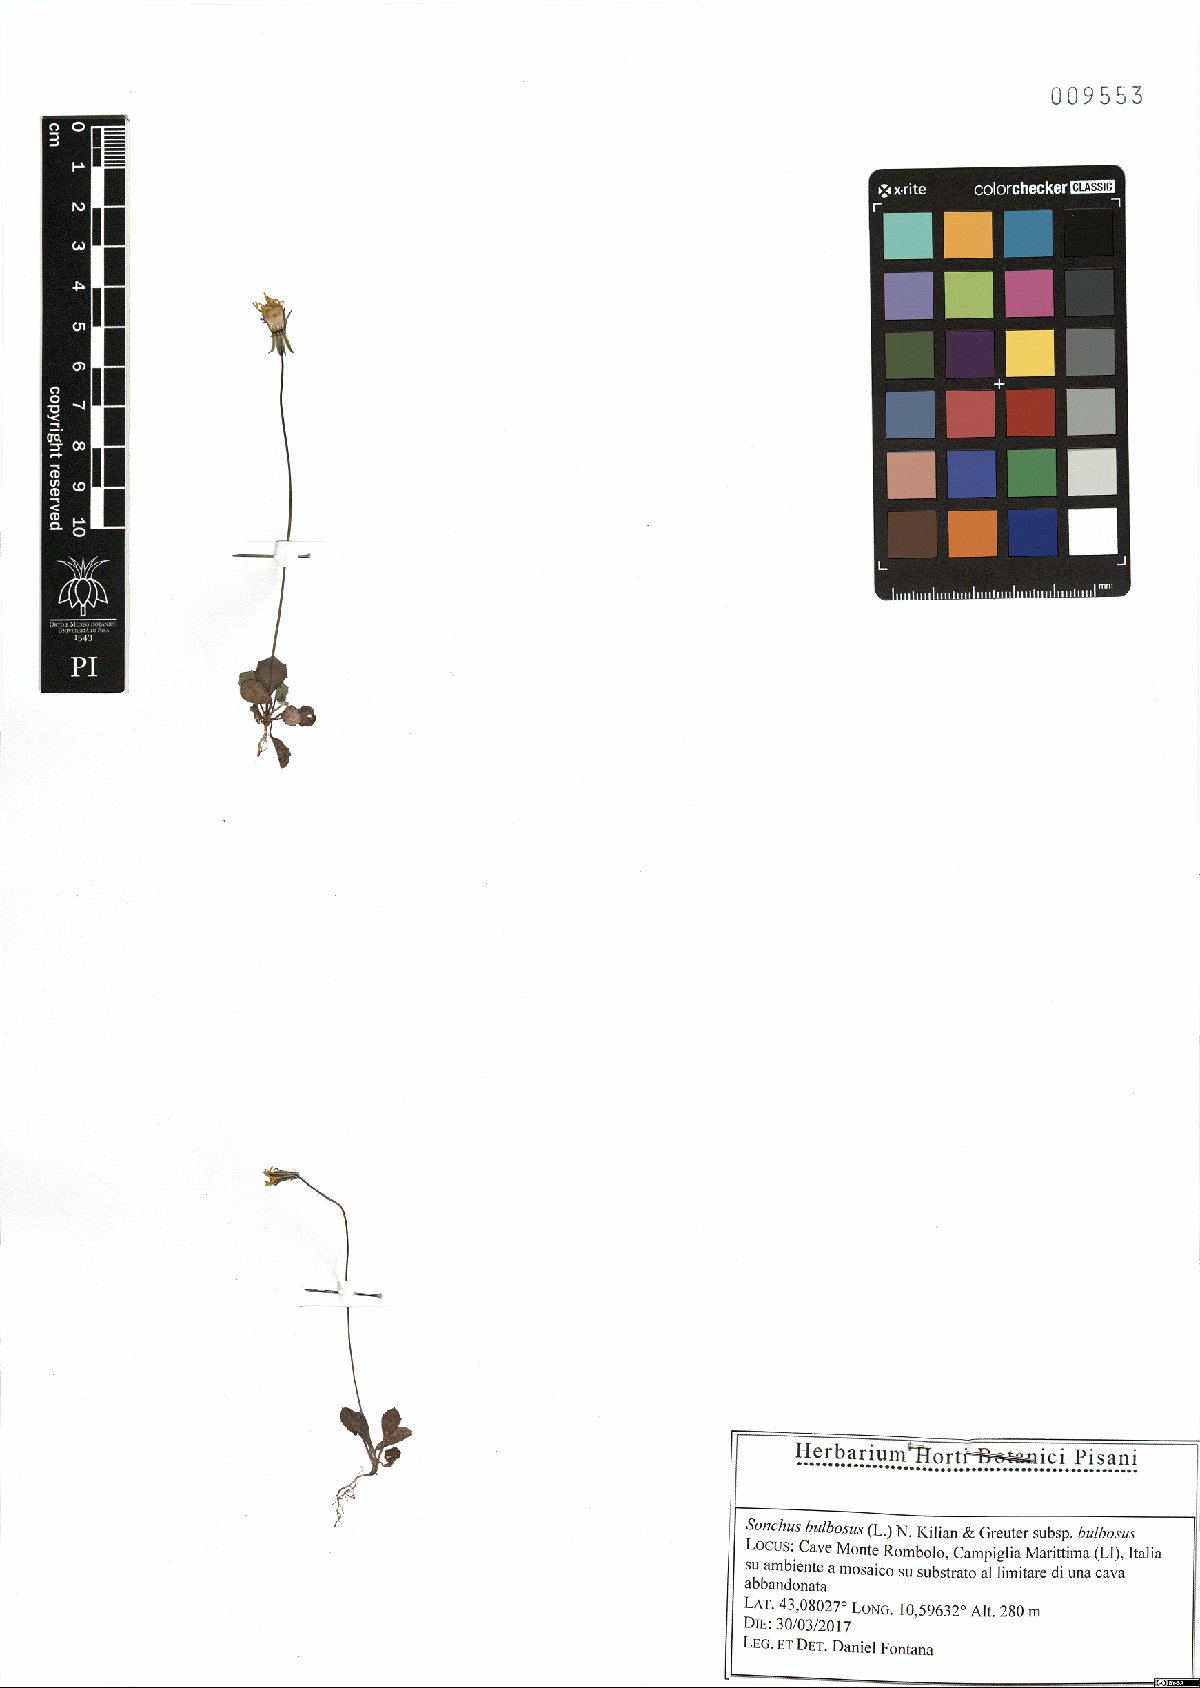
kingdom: Plantae
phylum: Tracheophyta
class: Magnoliopsida
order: Asterales
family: Asteraceae
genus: Aetheorhiza
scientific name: Aetheorhiza bulbosa
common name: Tuberous hawk's-beard
